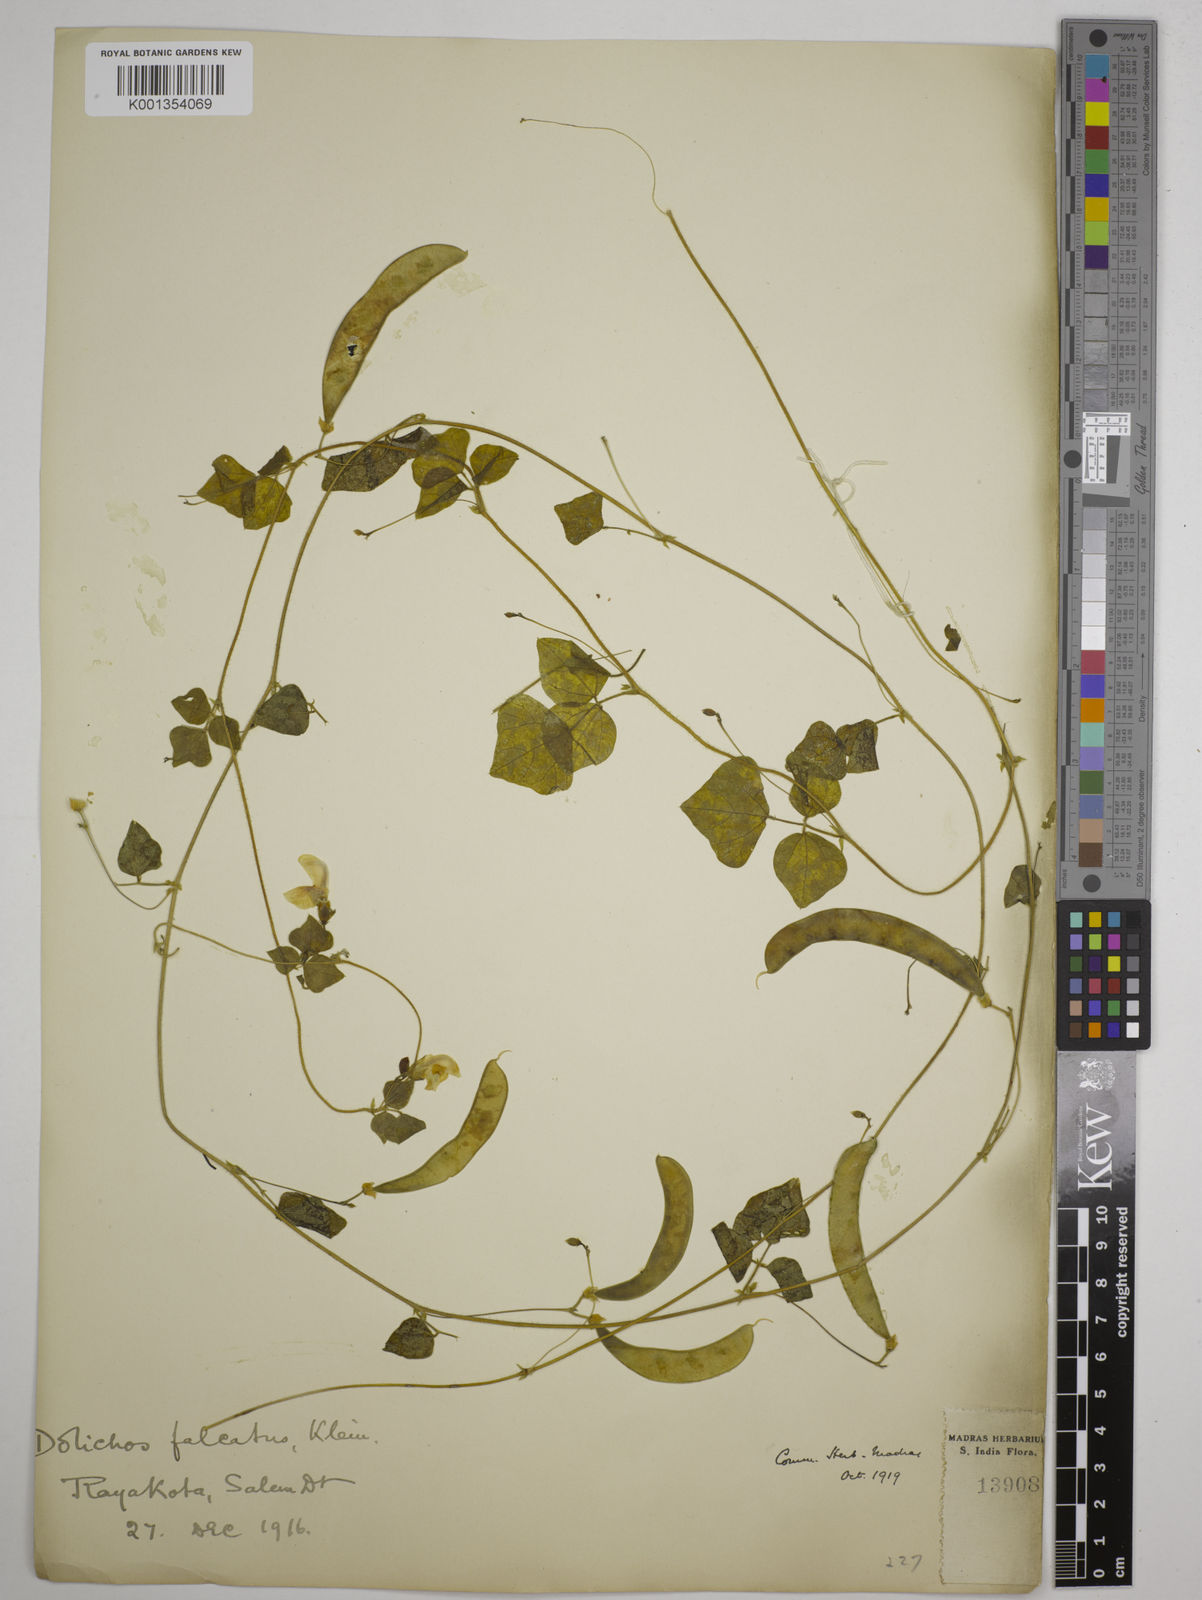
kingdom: Plantae
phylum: Tracheophyta
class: Magnoliopsida
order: Fabales
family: Fabaceae
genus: Dolichos
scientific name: Dolichos
